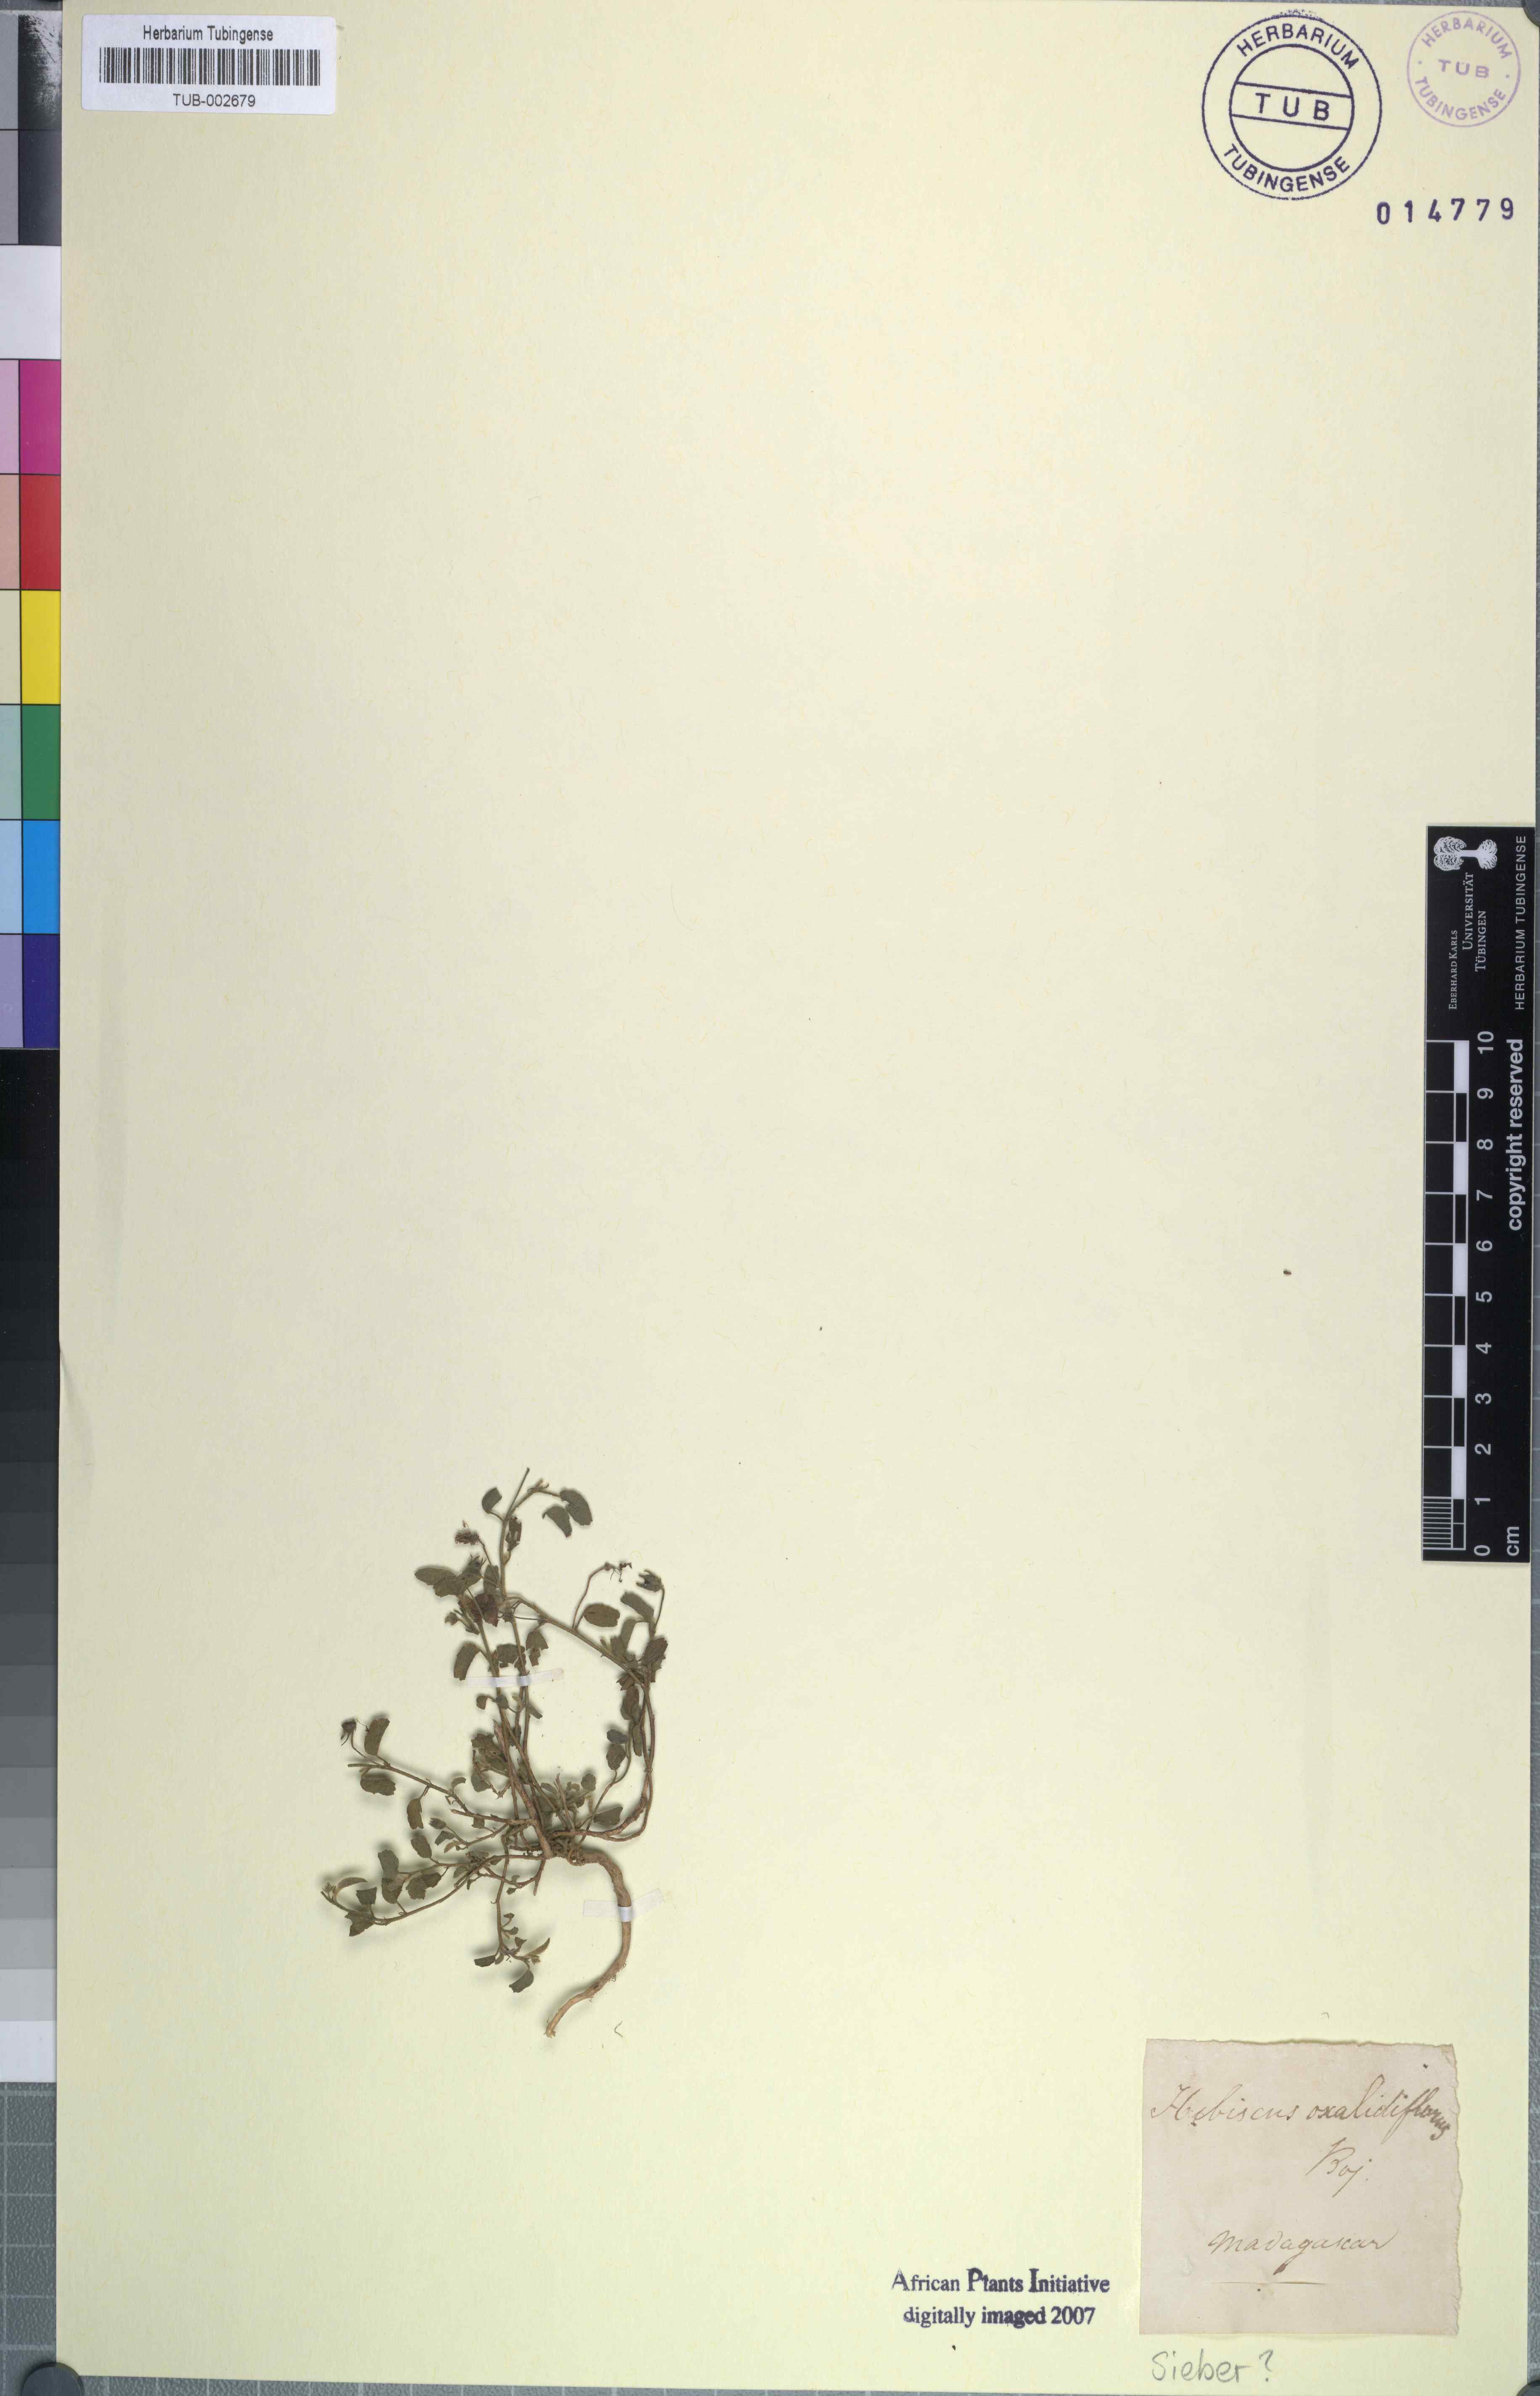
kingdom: Plantae
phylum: Tracheophyta
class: Magnoliopsida
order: Malvales
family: Malvaceae
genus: Hibiscus
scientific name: Hibiscus oxaliflorus
